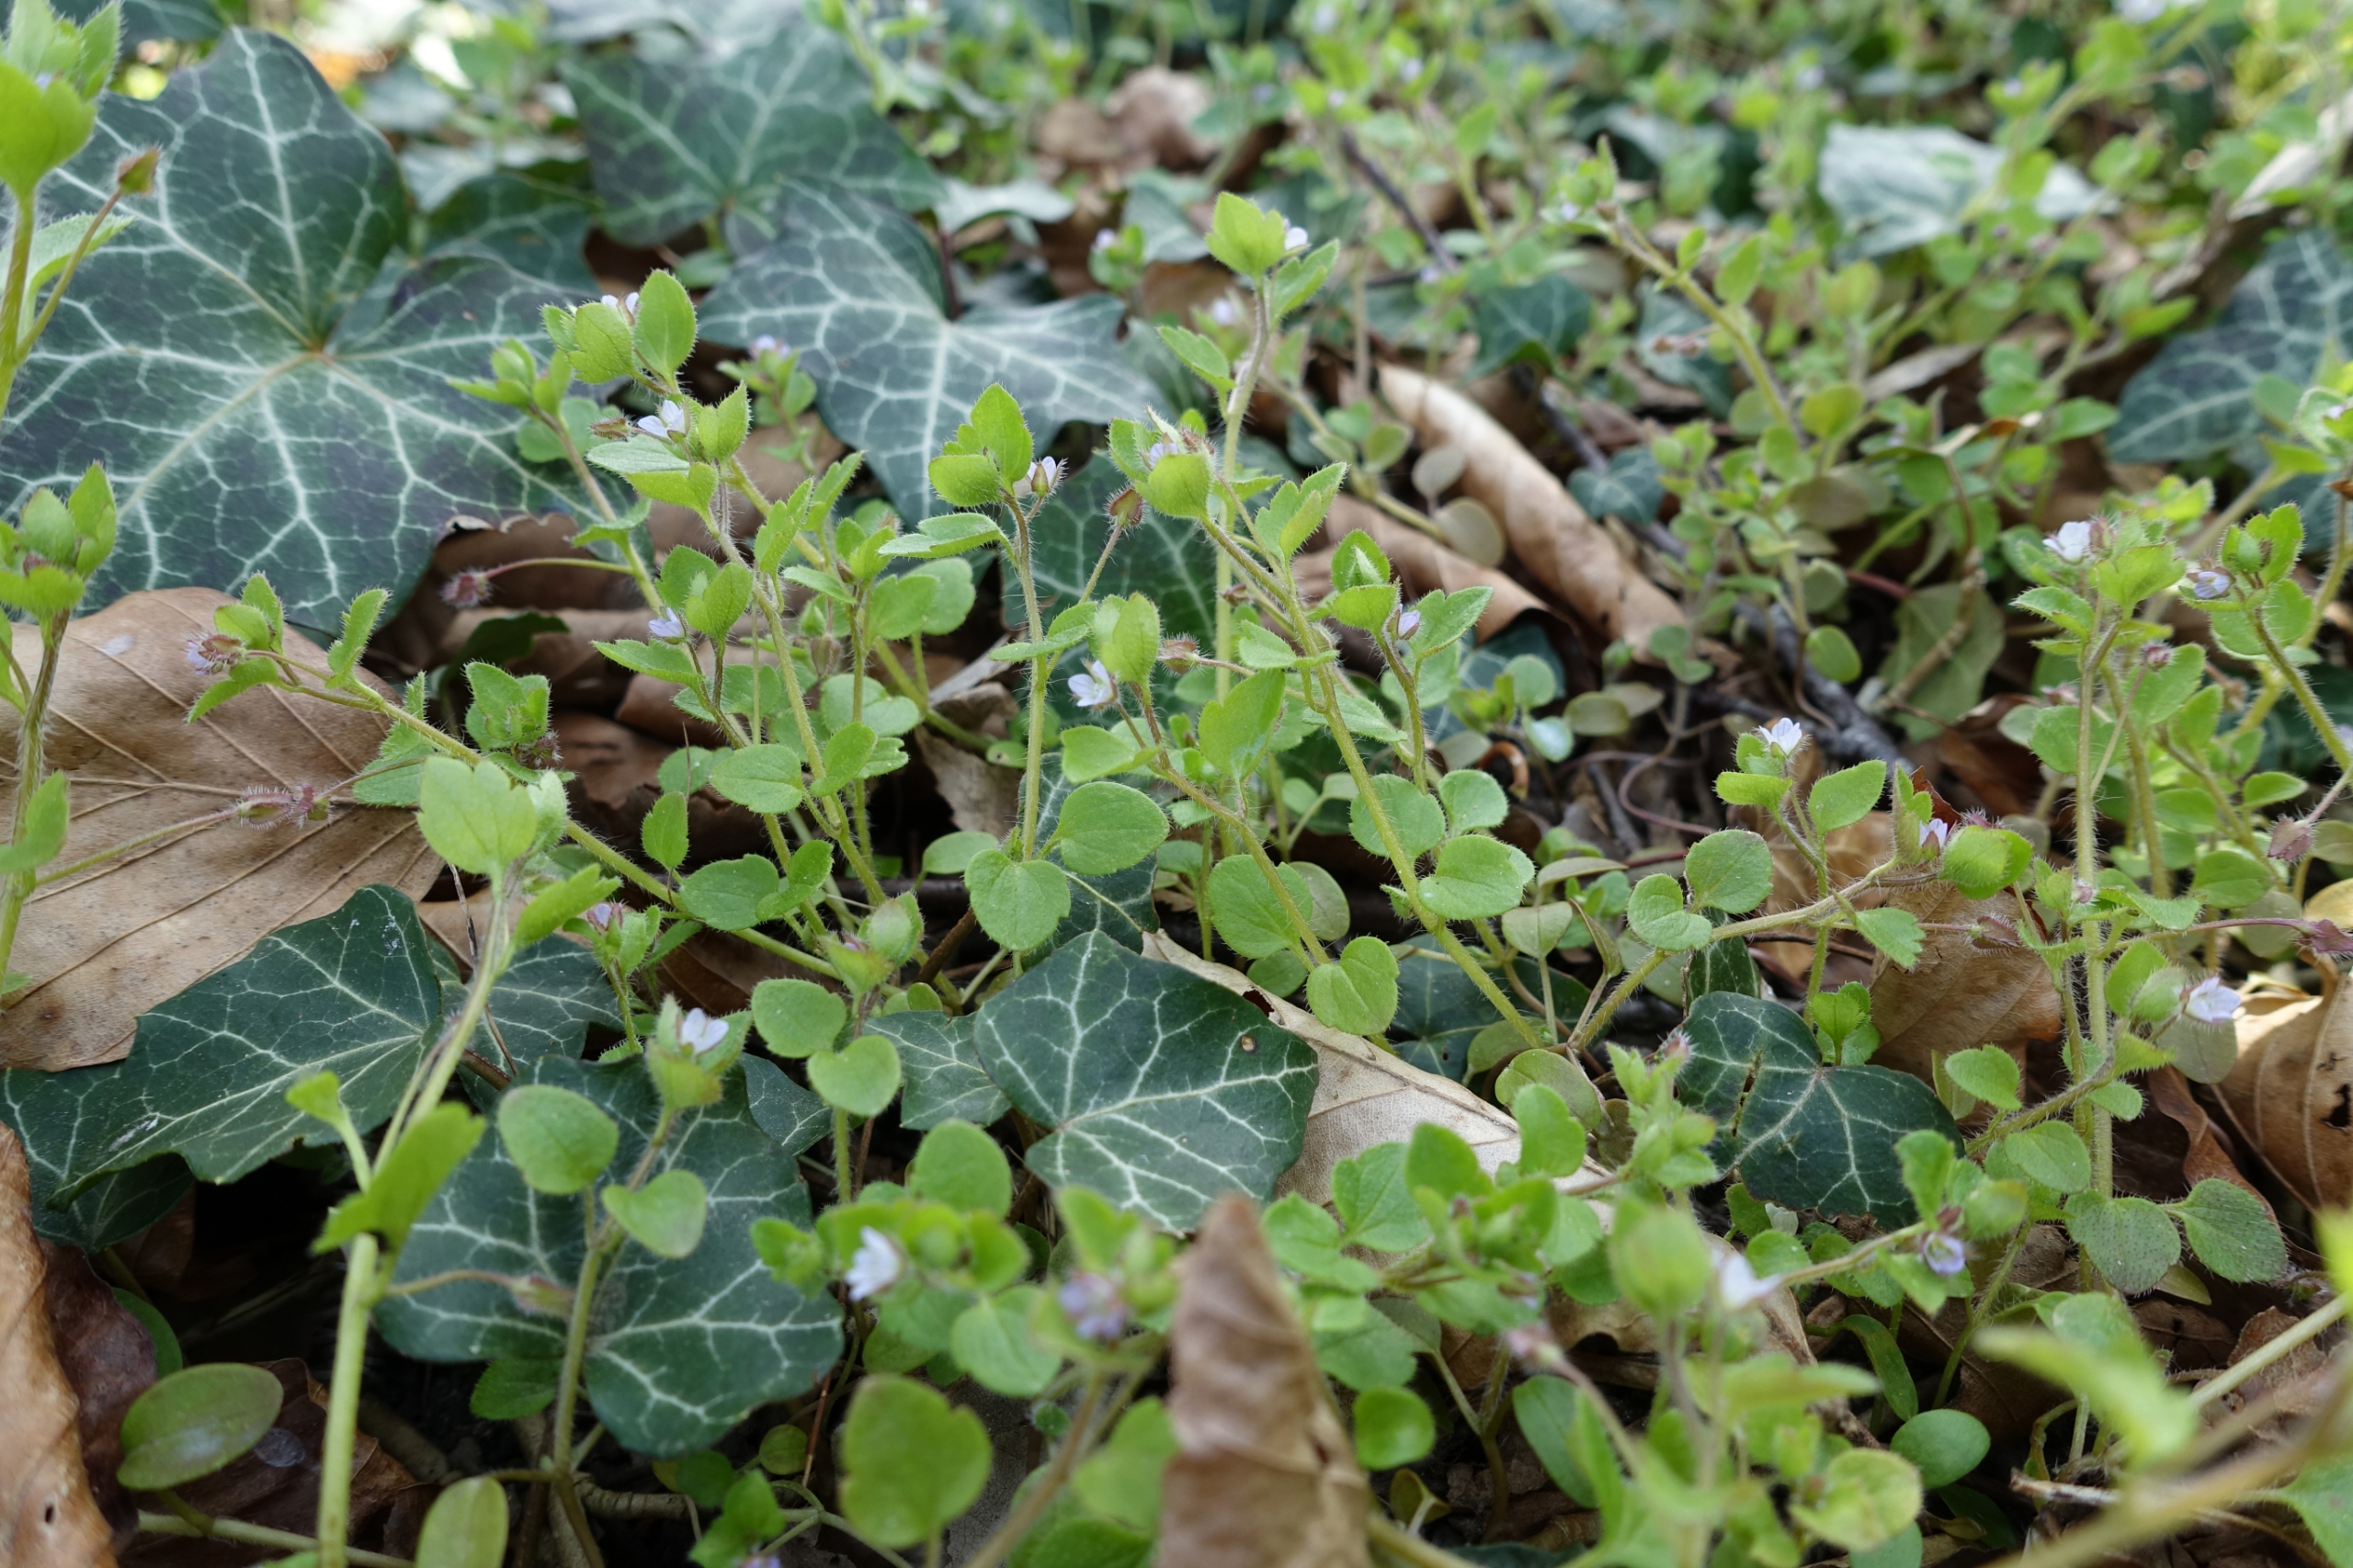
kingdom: Plantae
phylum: Tracheophyta
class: Magnoliopsida
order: Lamiales
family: Plantaginaceae
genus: Veronica
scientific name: Veronica hederifolia
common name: Vedbend-ærenpris
